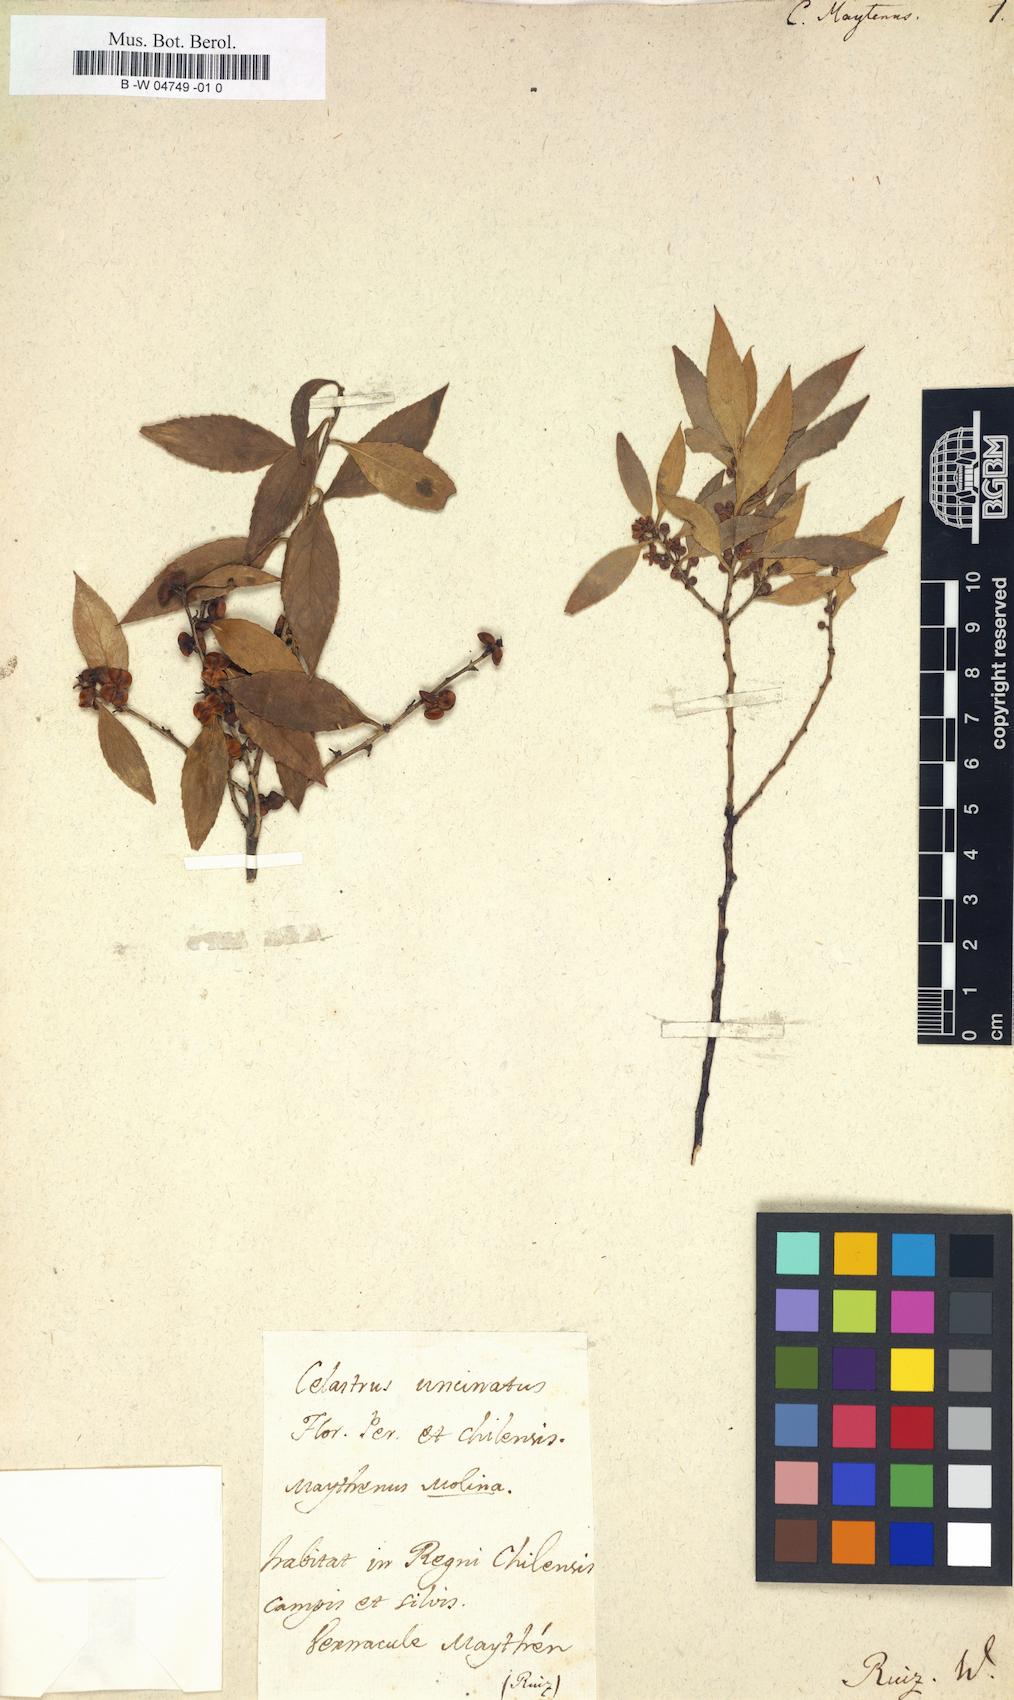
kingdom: Plantae
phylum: Tracheophyta
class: Magnoliopsida
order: Celastrales
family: Celastraceae
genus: Maytenus
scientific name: Maytenus boaria
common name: Mayten
